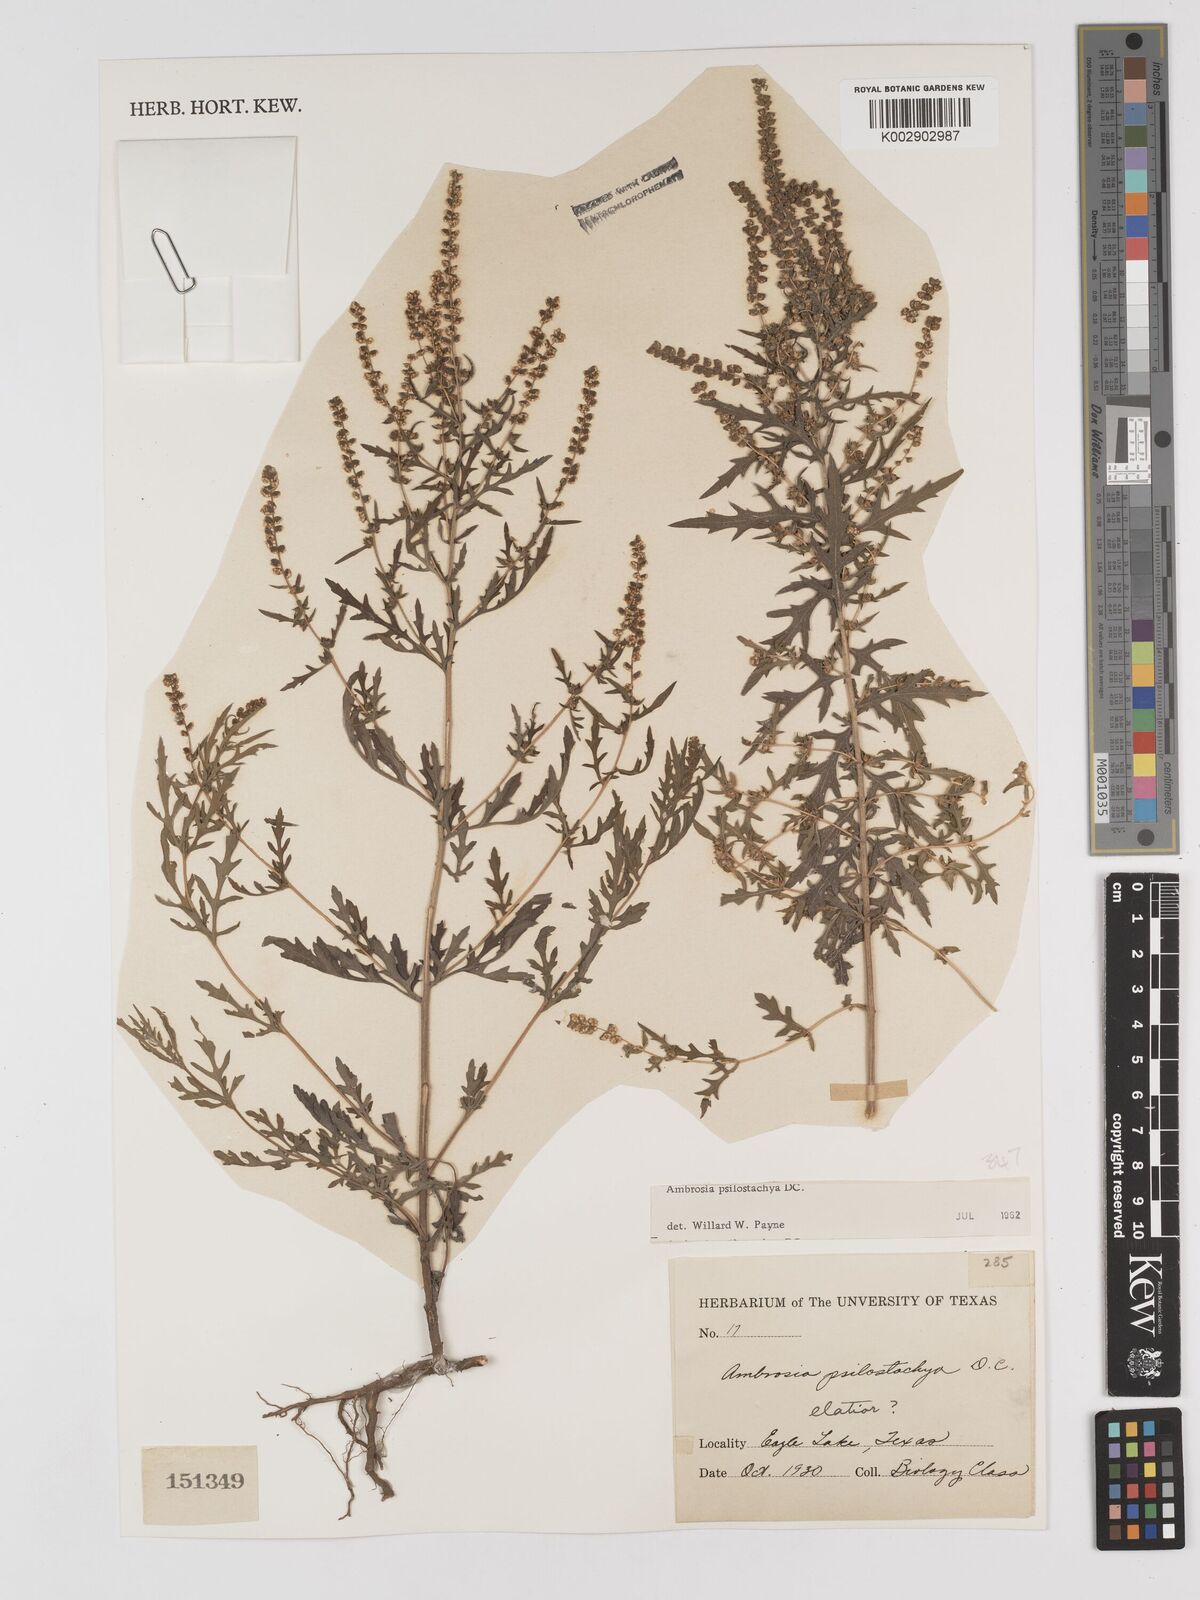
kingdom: Plantae
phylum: Tracheophyta
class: Magnoliopsida
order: Asterales
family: Asteraceae
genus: Ambrosia
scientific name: Ambrosia psilostachya
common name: Perennial ragweed
